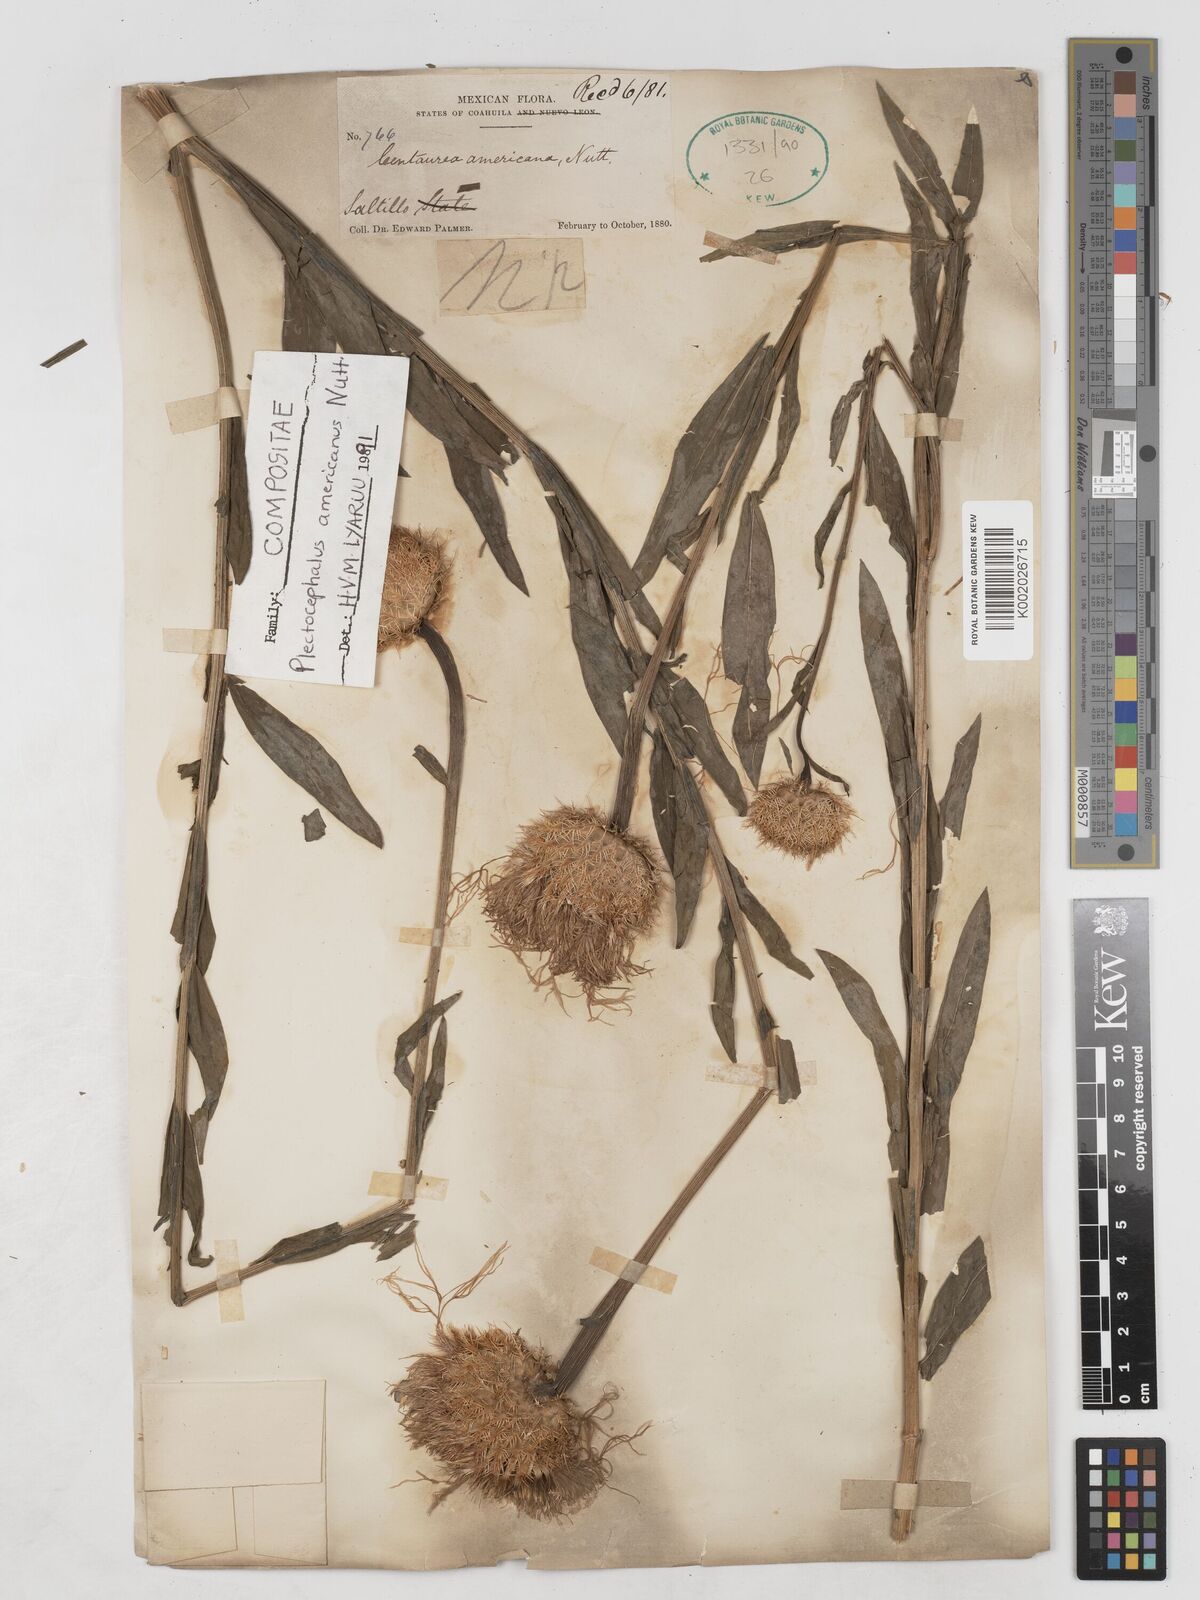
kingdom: Plantae
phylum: Tracheophyta
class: Magnoliopsida
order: Asterales
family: Asteraceae
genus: Plectocephalus
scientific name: Plectocephalus americanus
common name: American basket-flower
